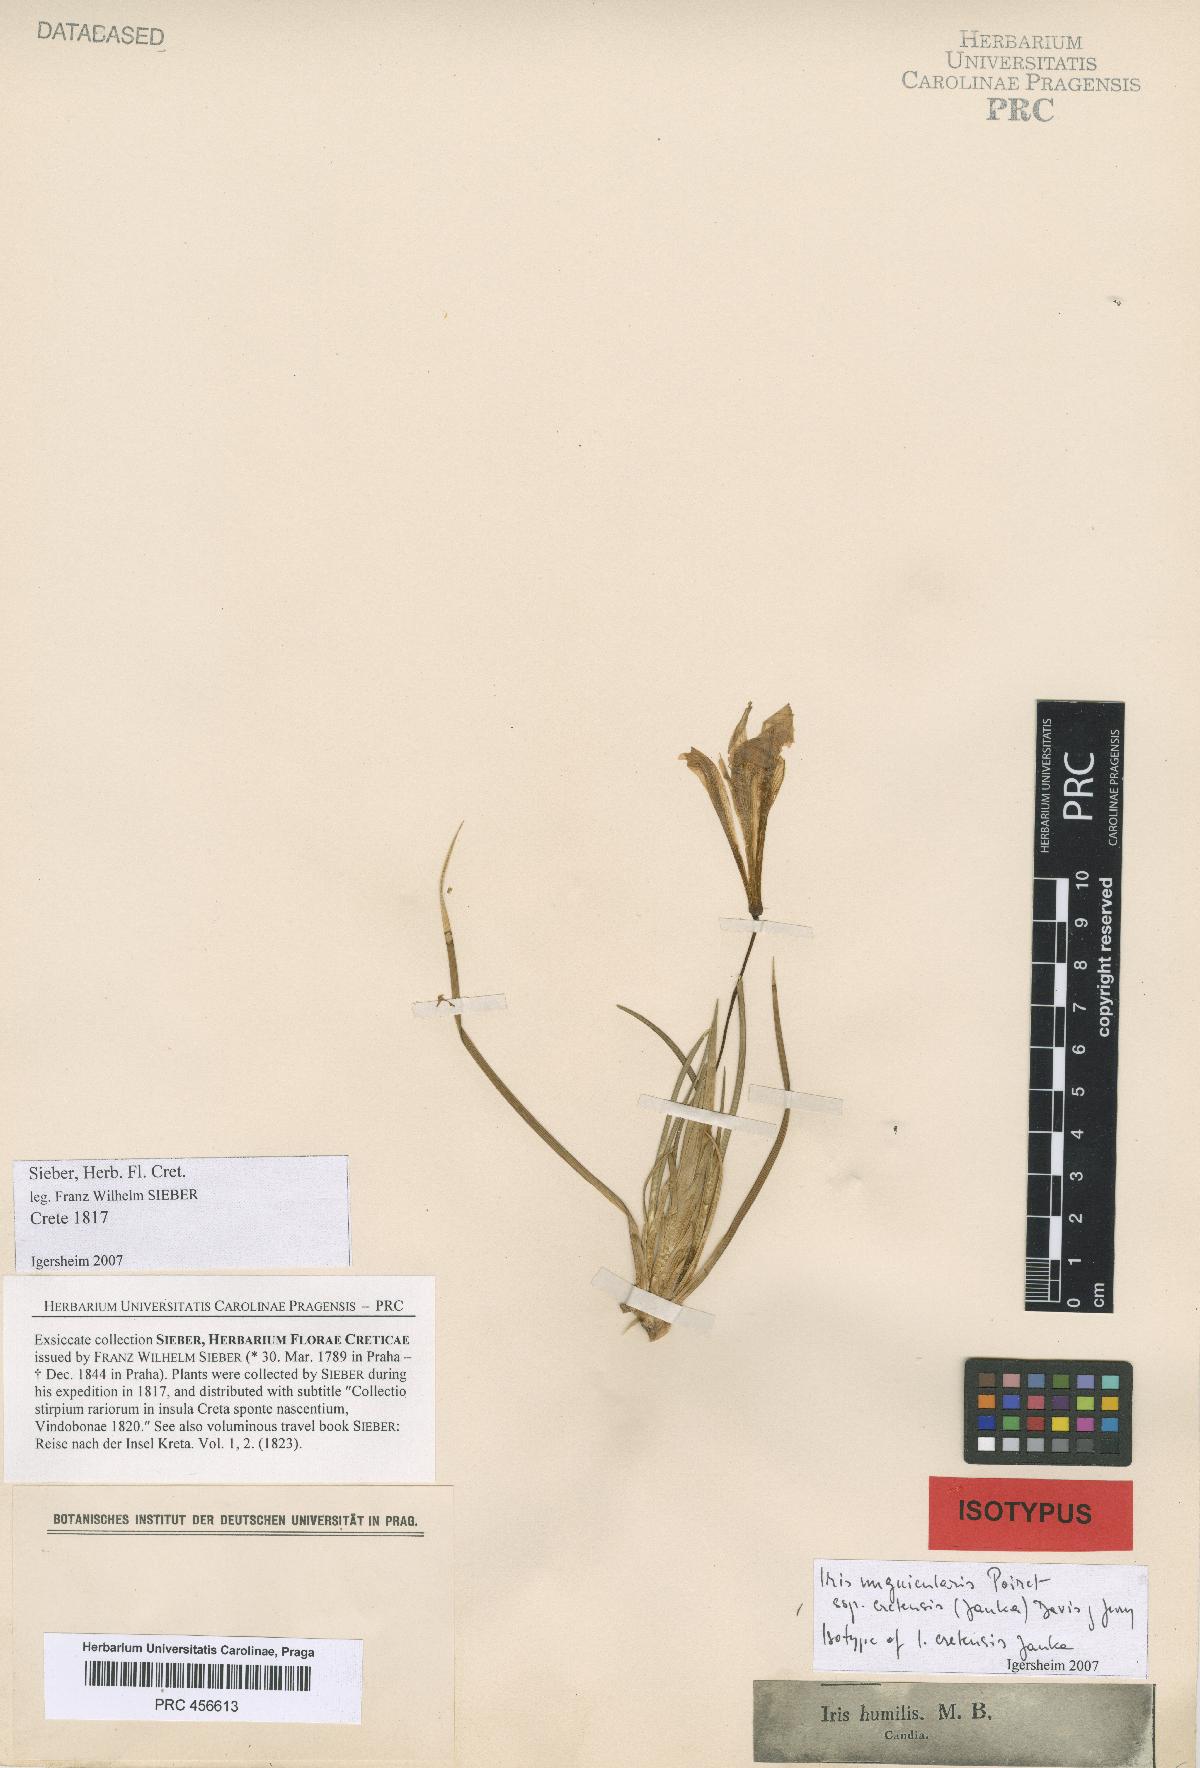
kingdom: Plantae
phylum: Tracheophyta
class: Liliopsida
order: Asparagales
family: Iridaceae
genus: Iris
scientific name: Iris unguicularis
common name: Algerian iris
